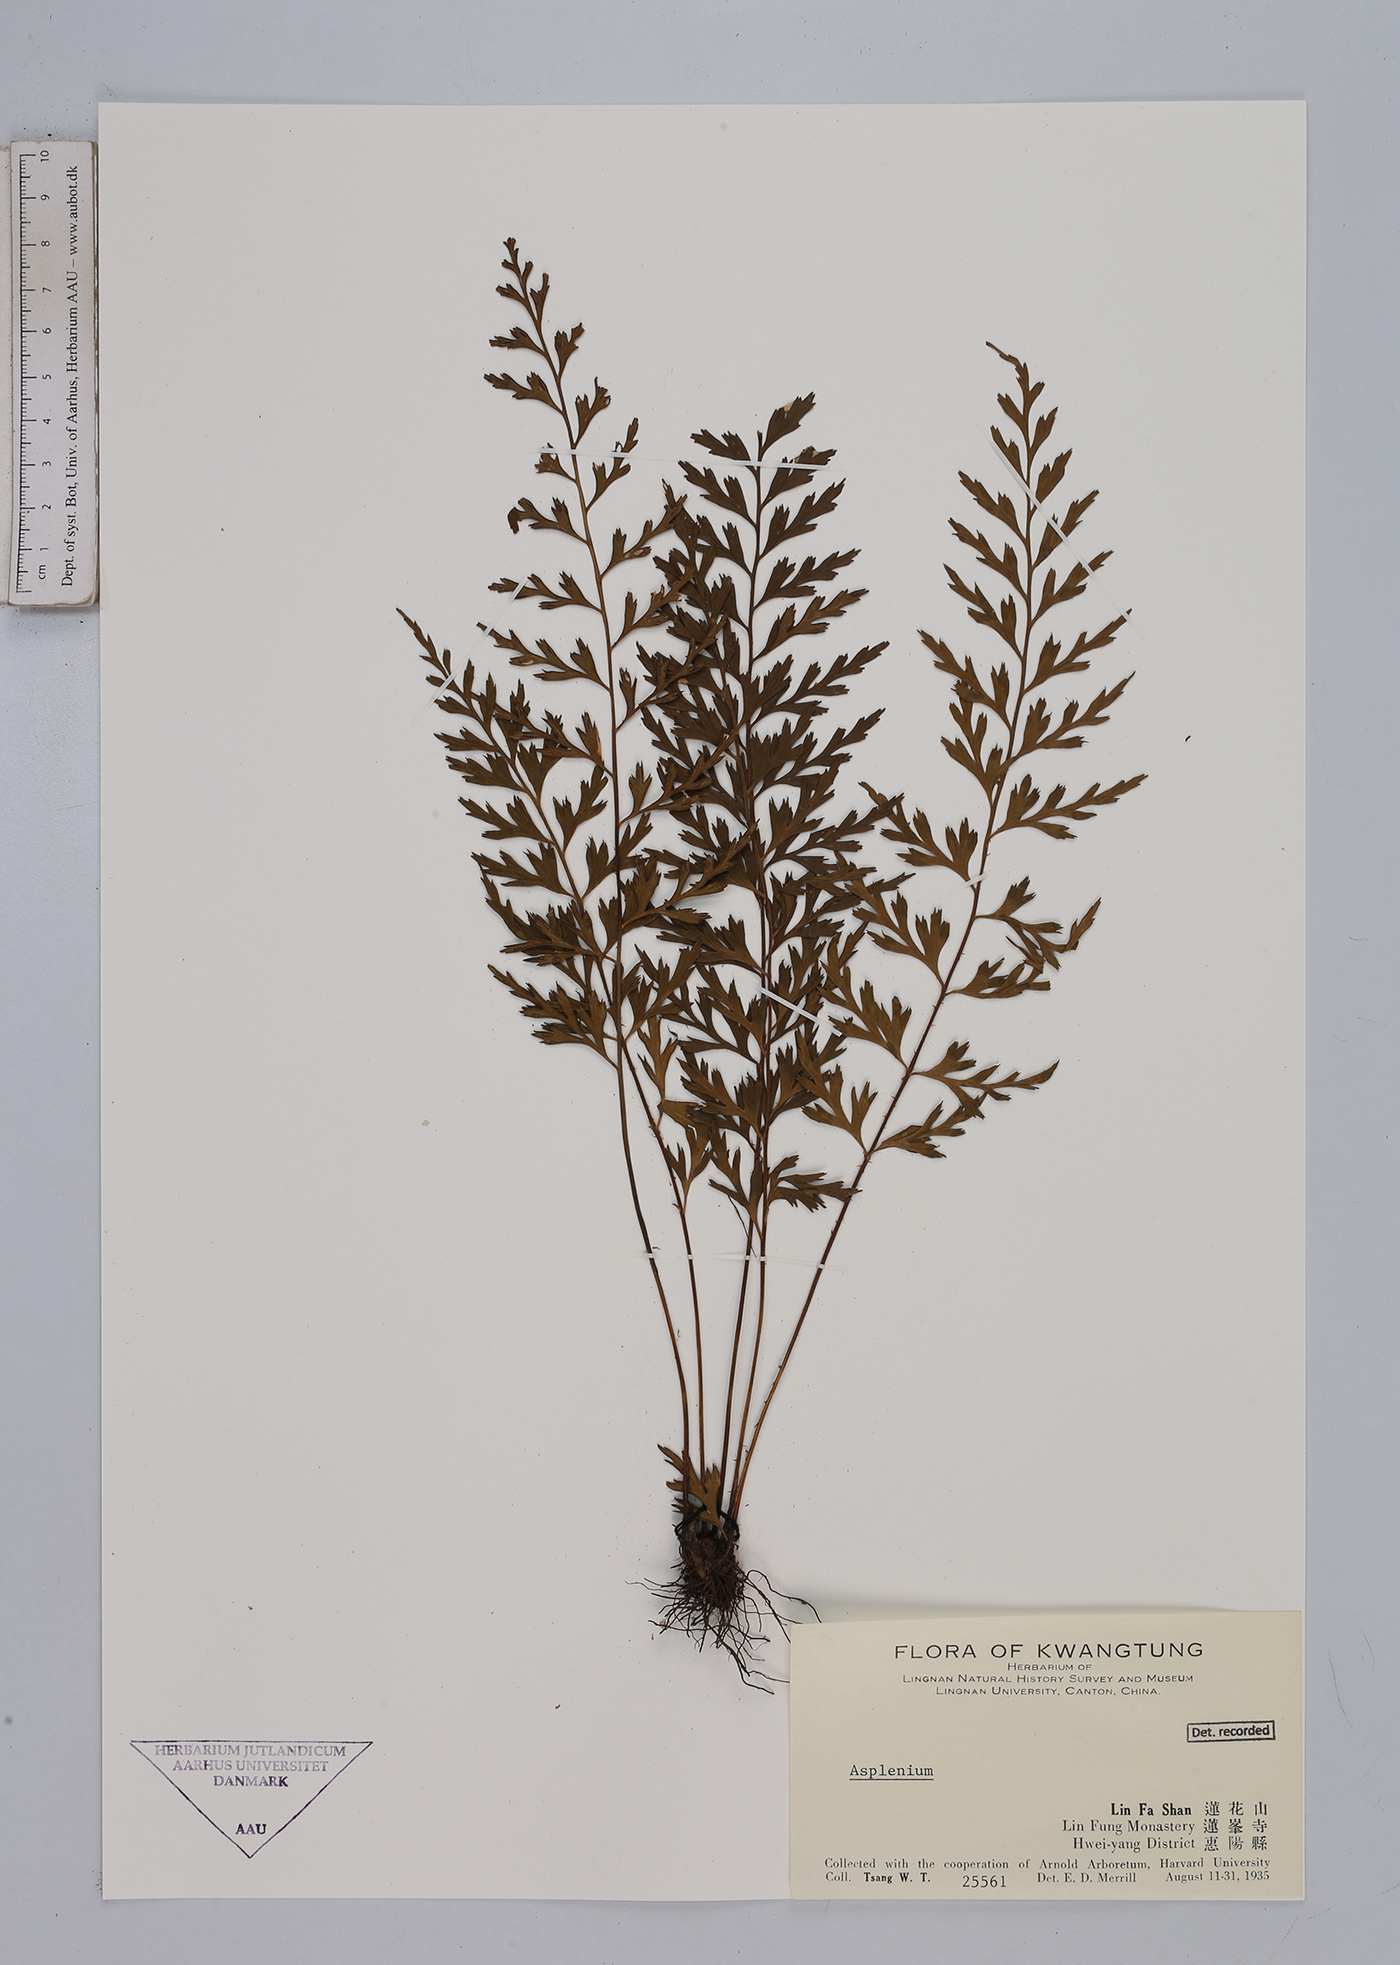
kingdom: Plantae
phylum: Tracheophyta
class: Polypodiopsida
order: Polypodiales
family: Aspleniaceae
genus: Asplenium
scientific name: Asplenium
